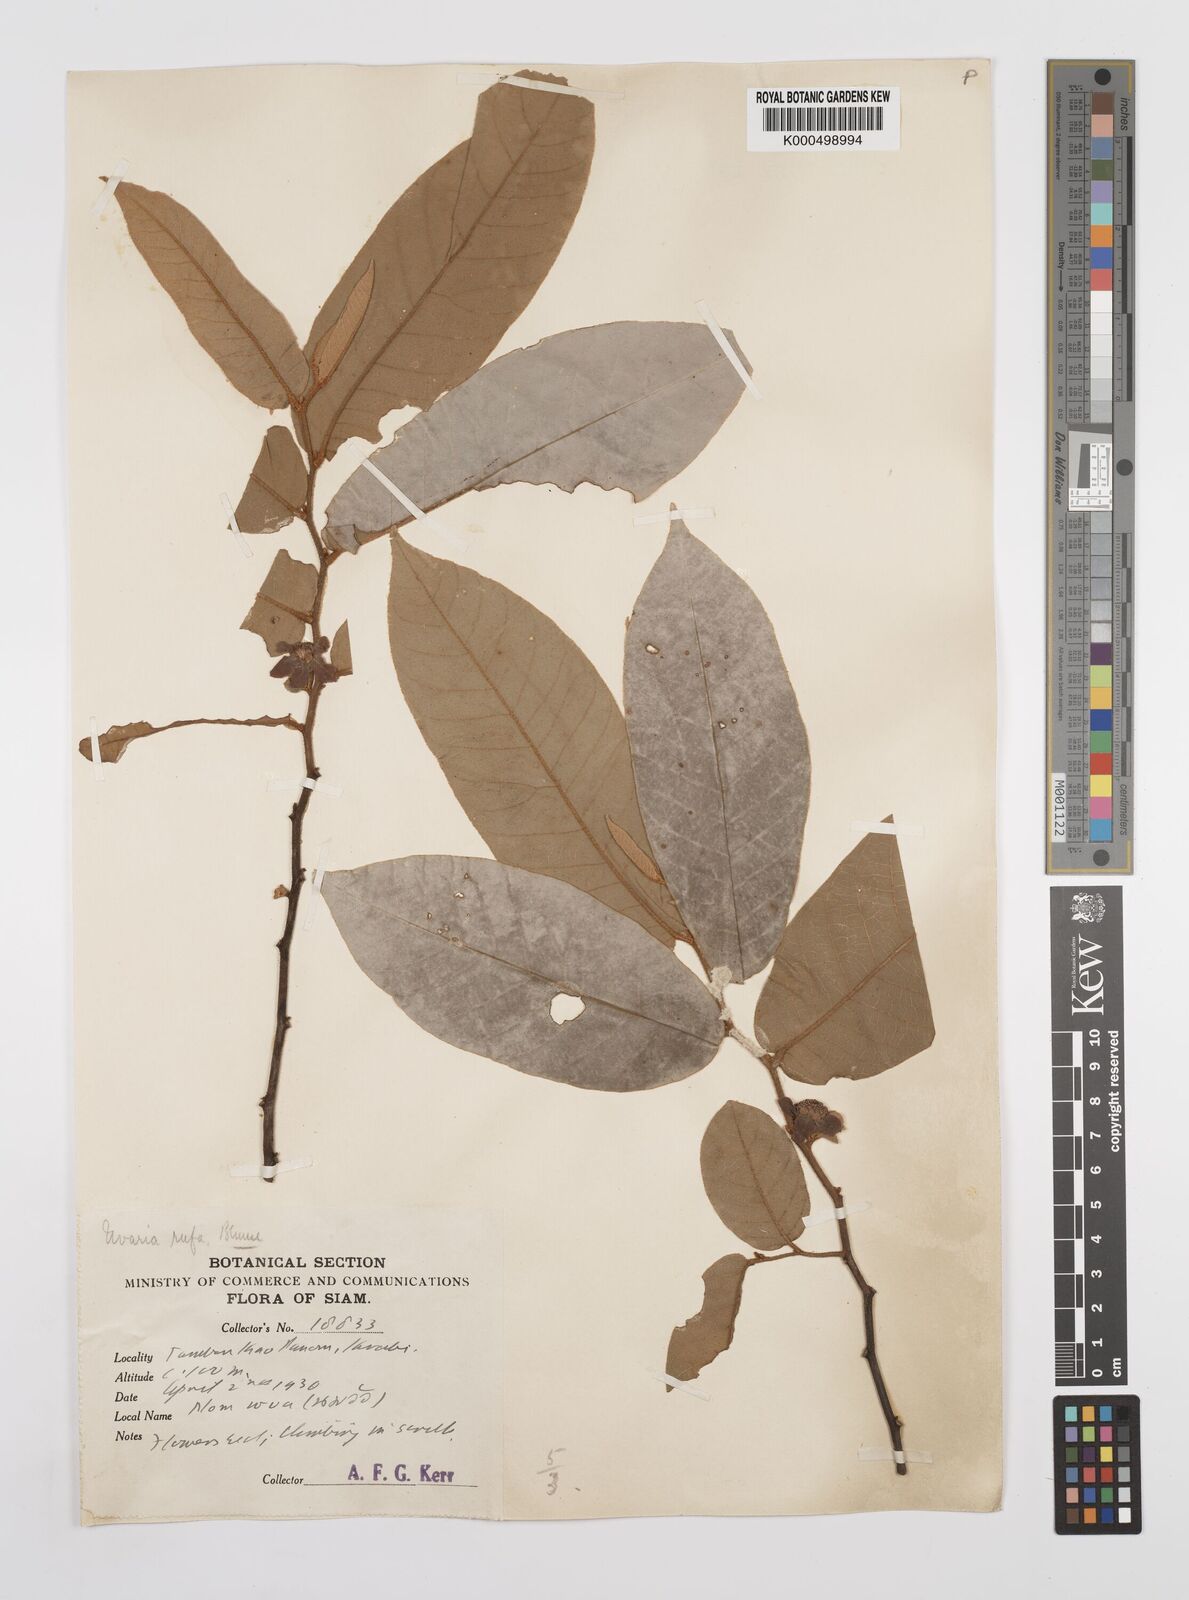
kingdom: Plantae
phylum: Tracheophyta
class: Magnoliopsida
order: Magnoliales
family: Annonaceae
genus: Uvaria
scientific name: Uvaria rufa
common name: Torres strait scrambler
